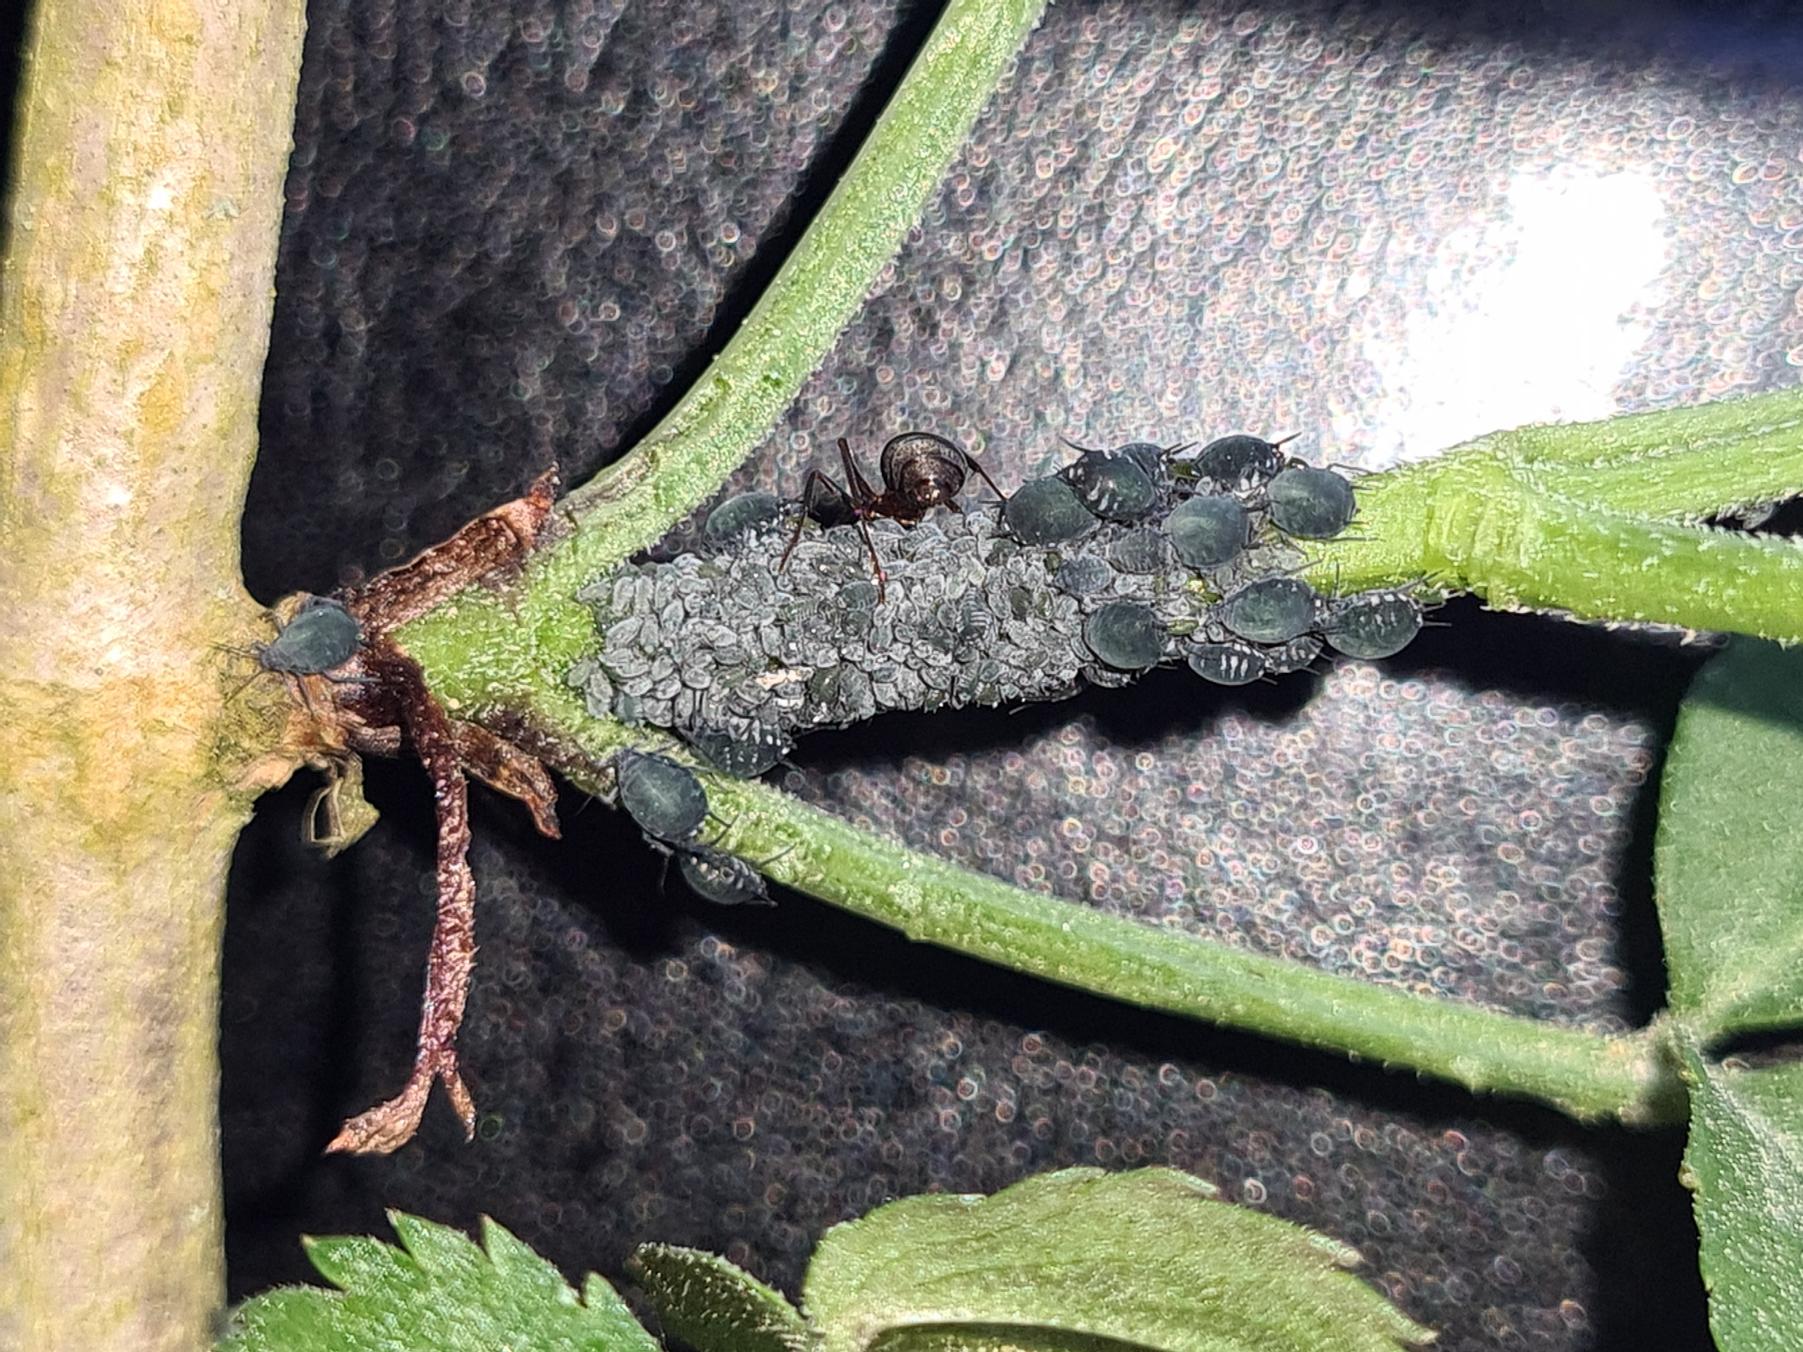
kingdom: Animalia
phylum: Arthropoda
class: Insecta
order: Hemiptera
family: Aphididae
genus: Aphis
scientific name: Aphis sambuci
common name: Hyldebladlus
